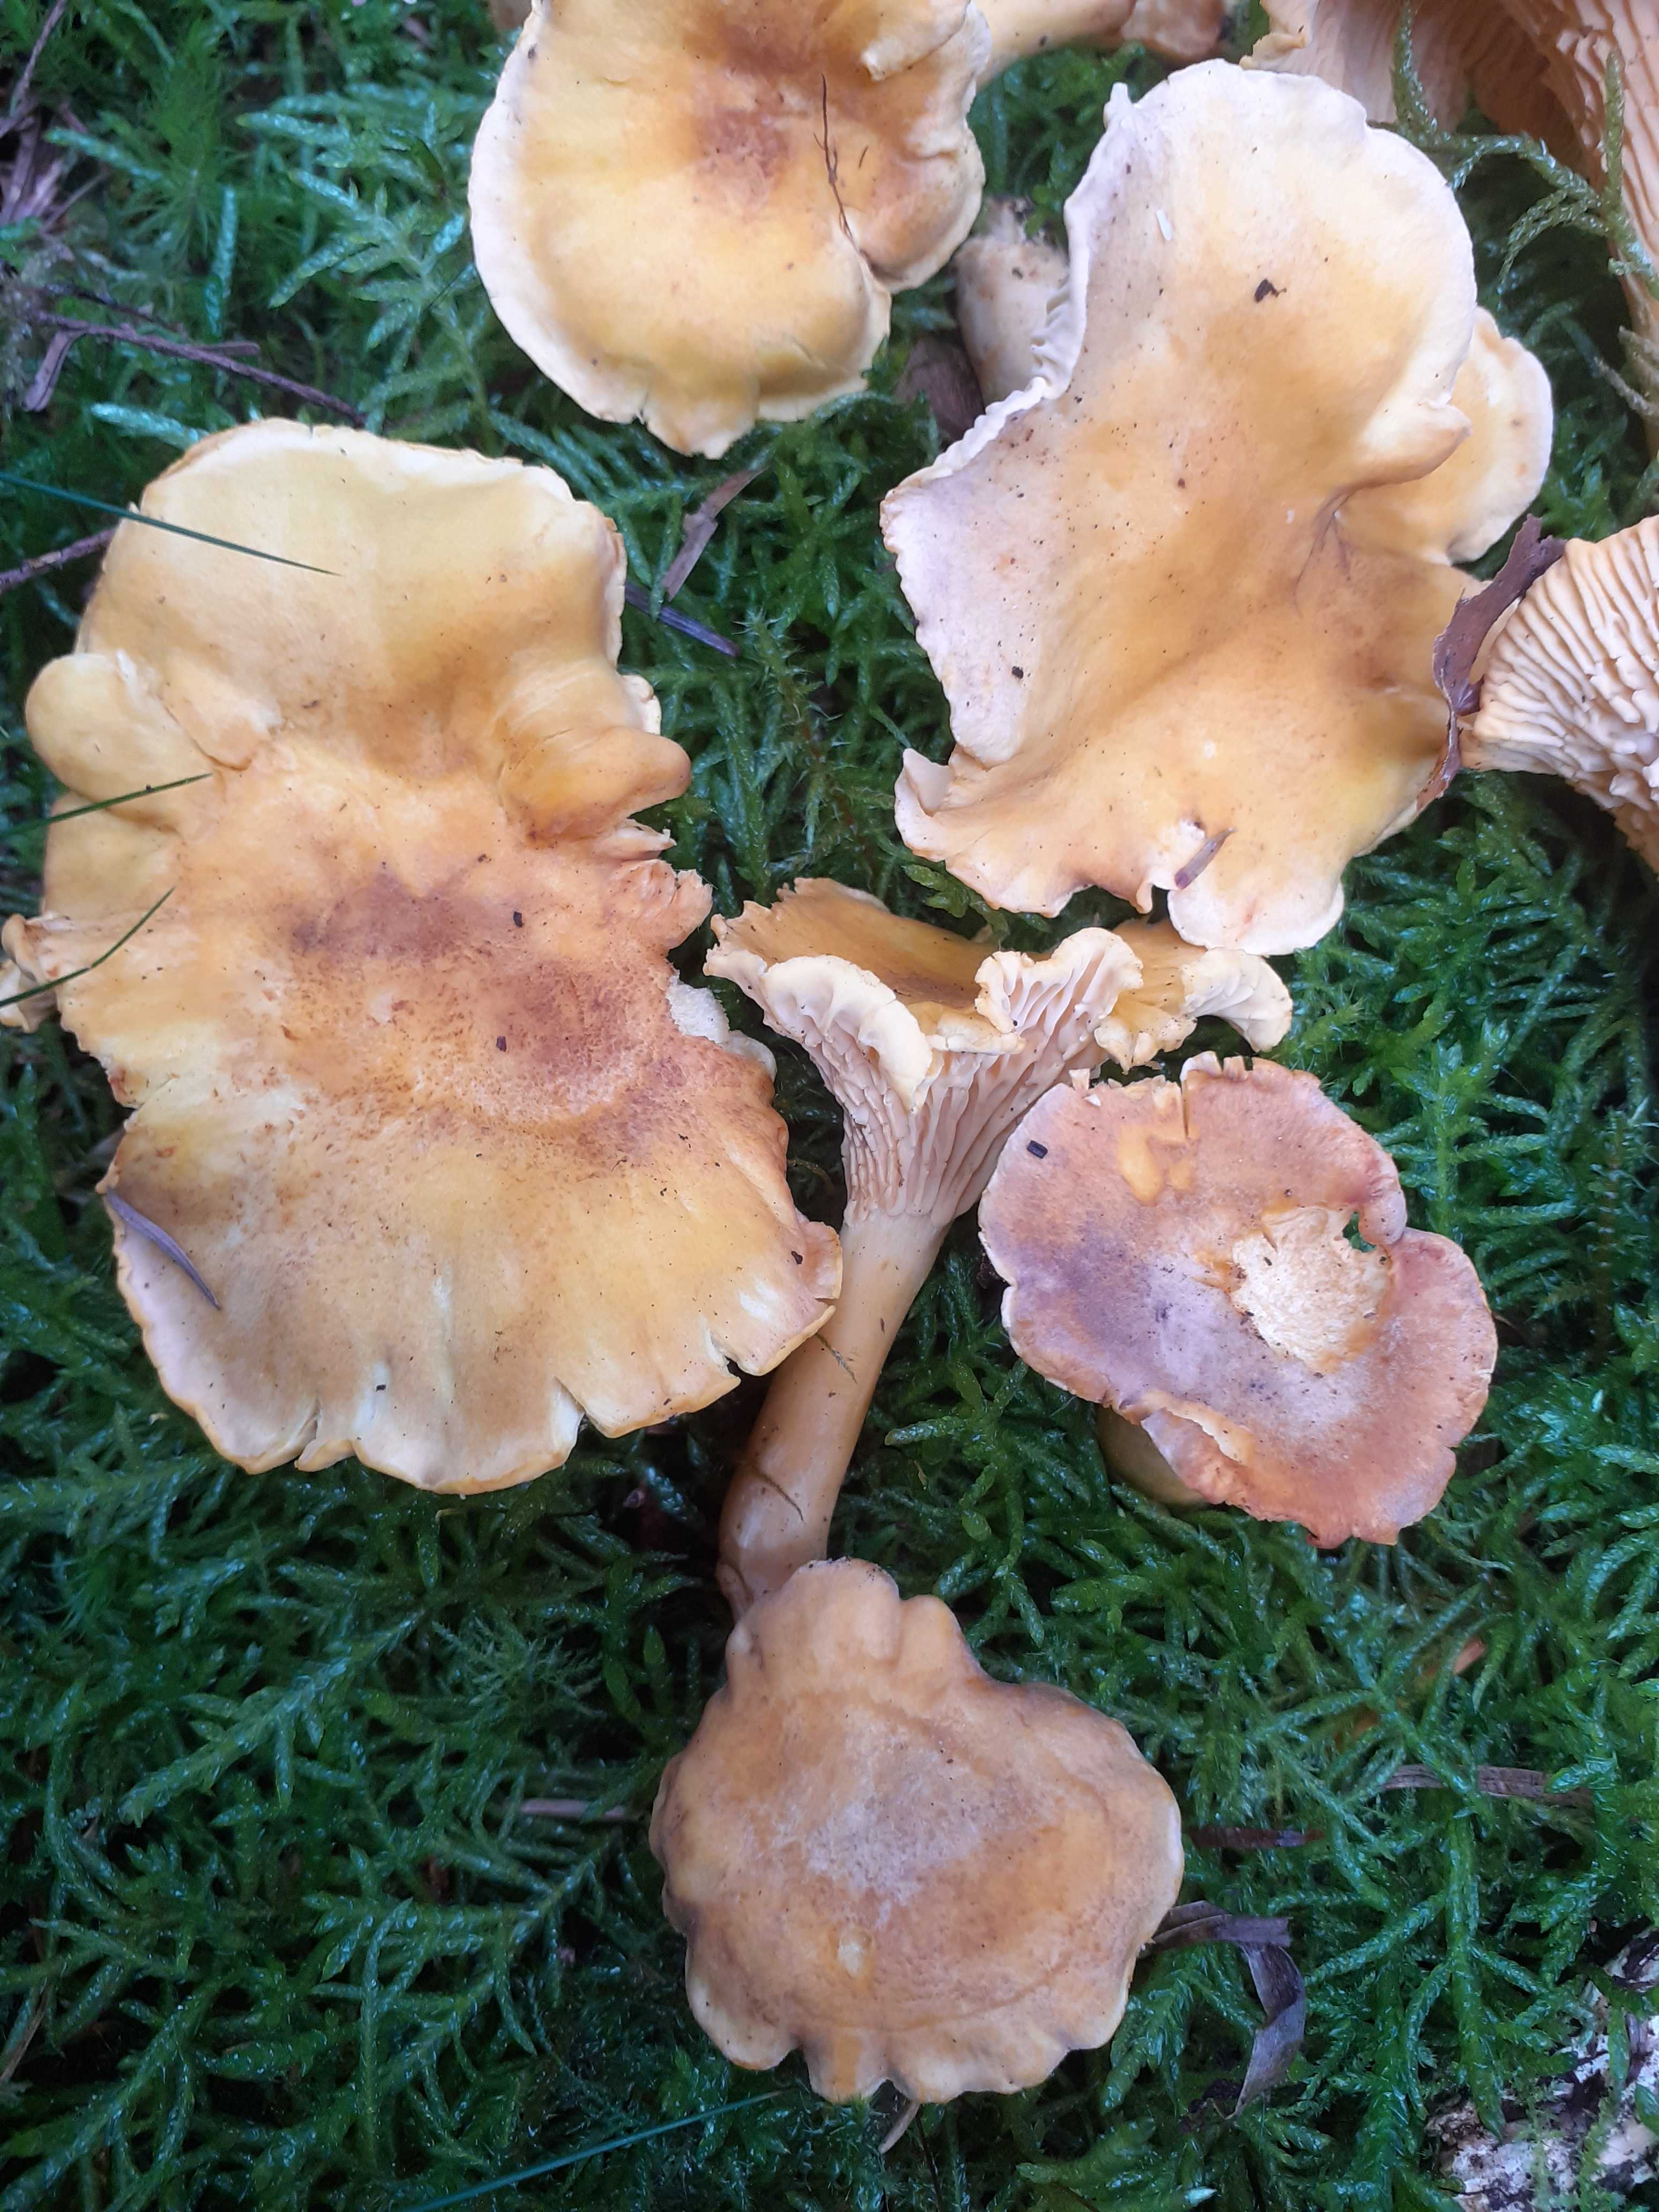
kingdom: Fungi
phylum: Basidiomycota
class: Agaricomycetes
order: Cantharellales
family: Hydnaceae
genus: Cantharellus
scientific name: Cantharellus amethysteus
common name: ametyst-kantarel
